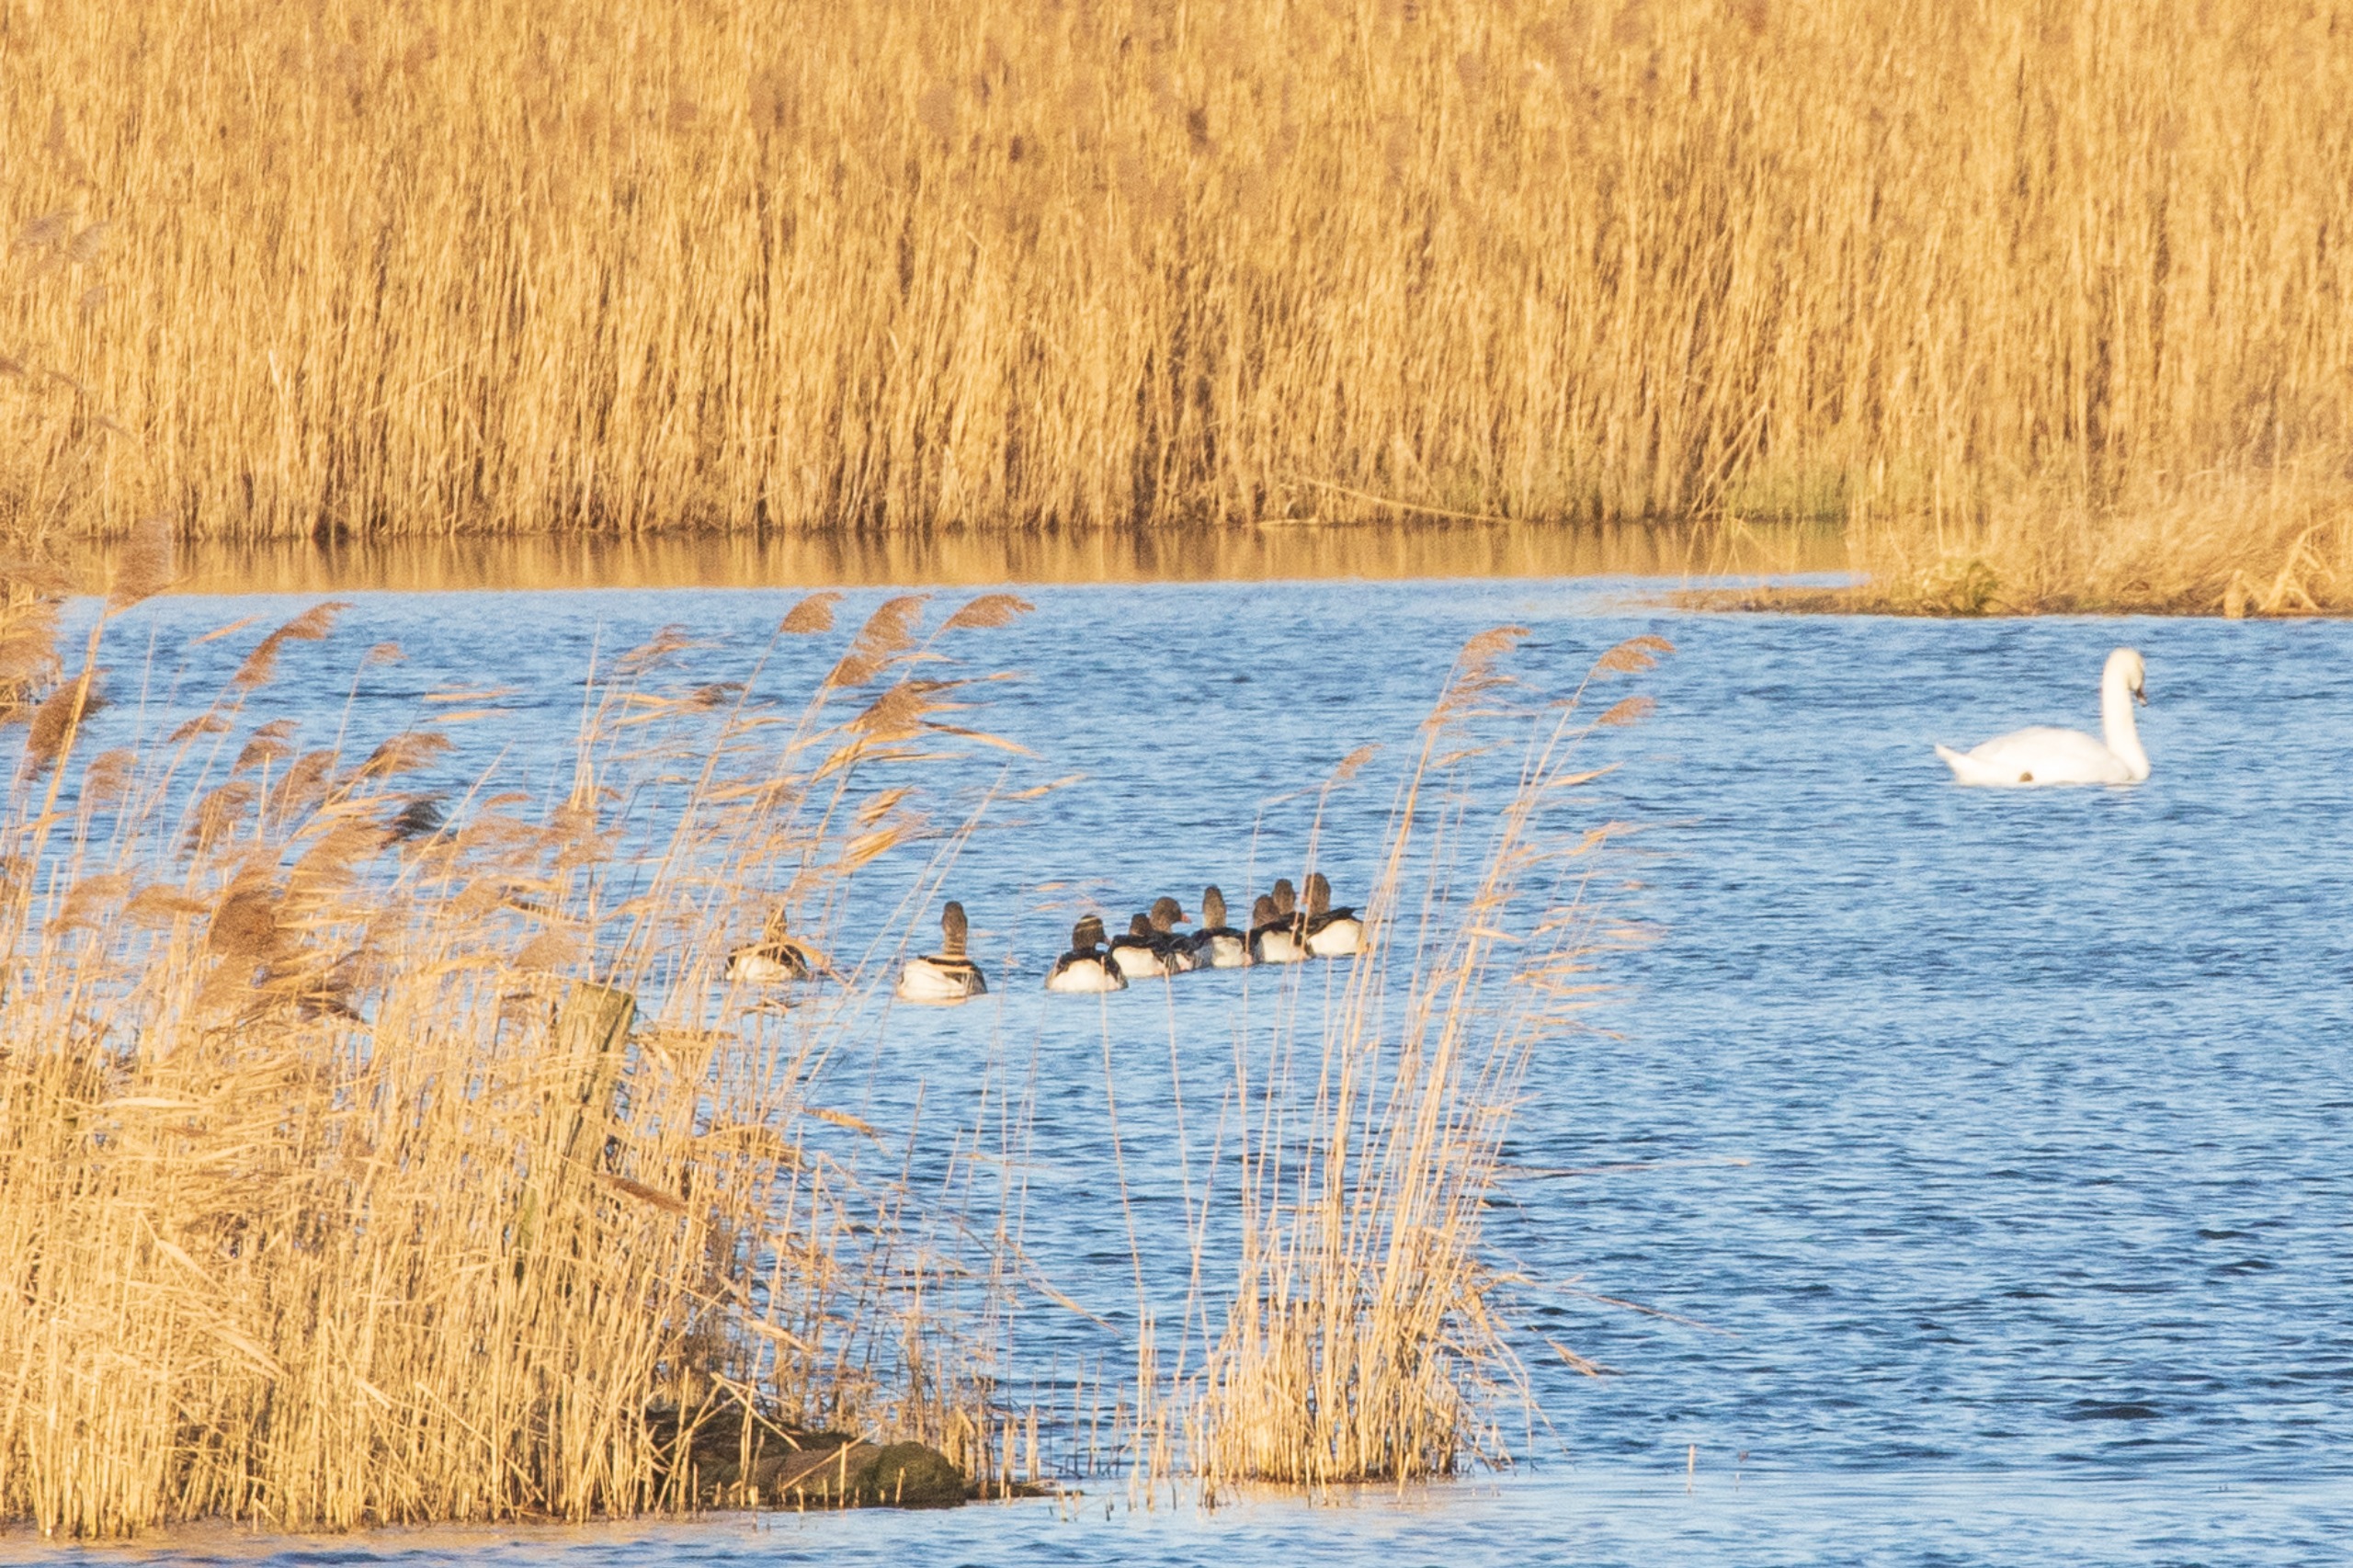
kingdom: Animalia
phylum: Chordata
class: Aves
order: Anseriformes
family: Anatidae
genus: Anser
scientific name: Anser anser
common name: Grågås
